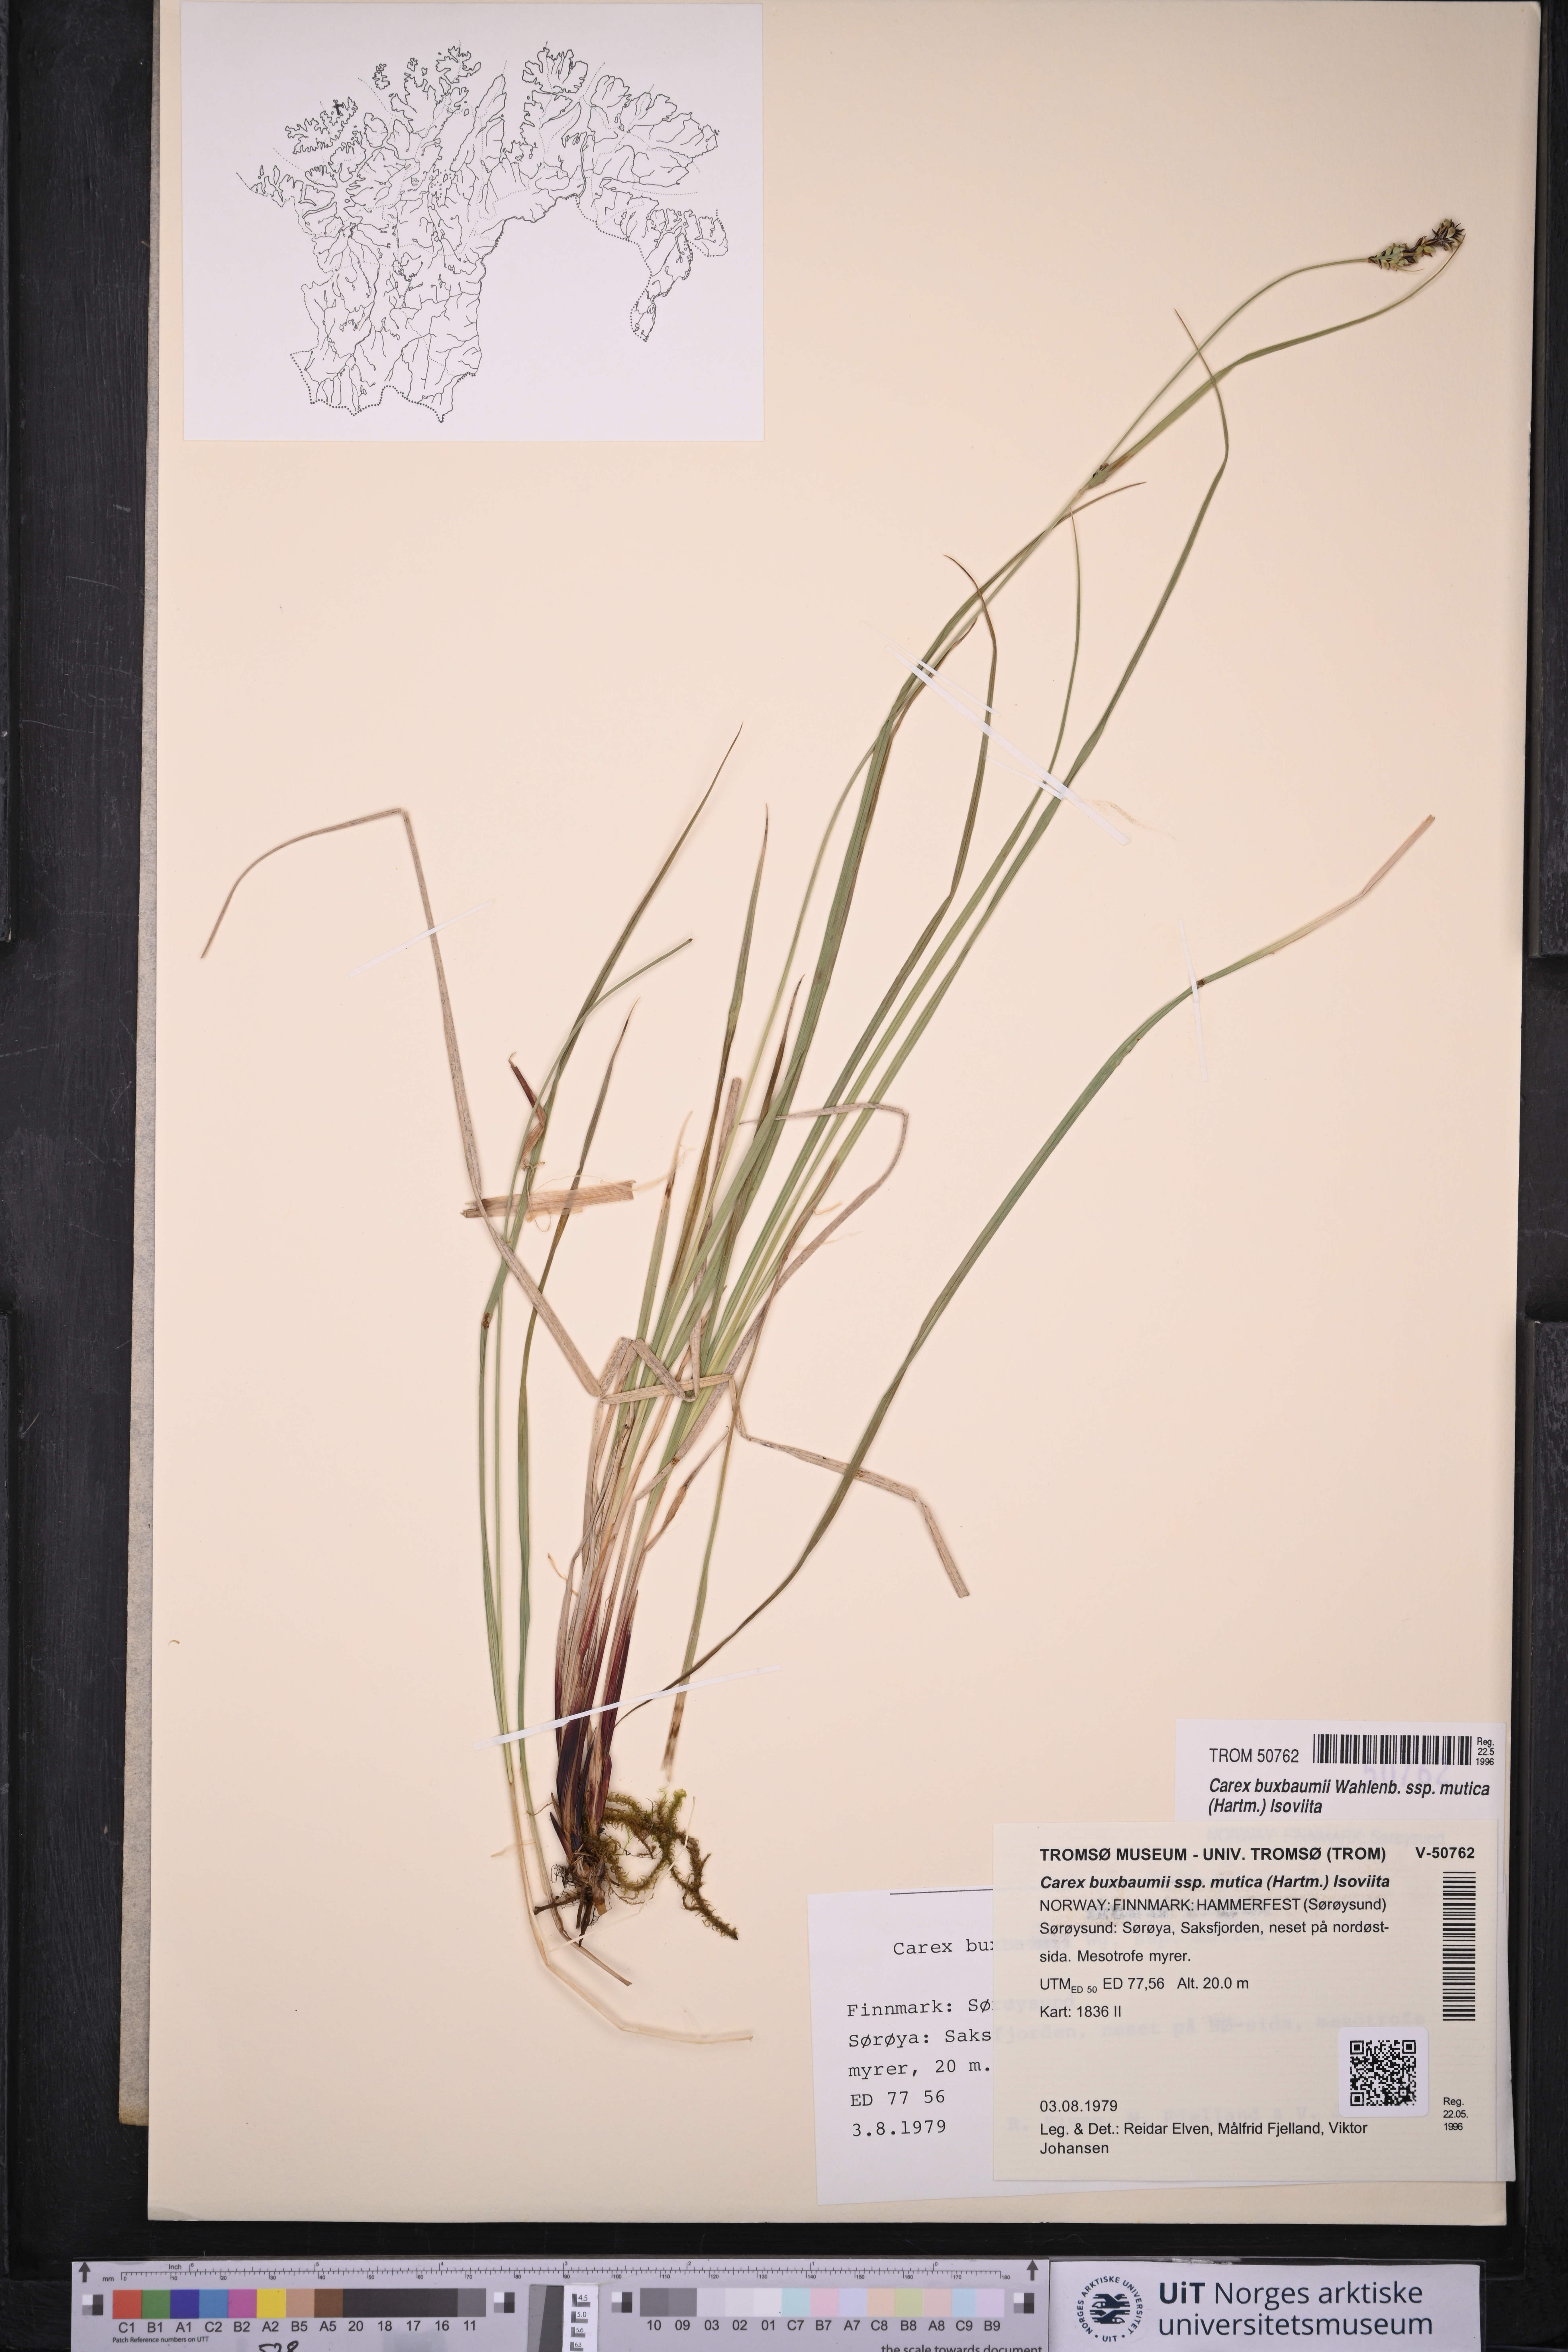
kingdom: Plantae
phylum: Tracheophyta
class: Liliopsida
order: Poales
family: Cyperaceae
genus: Carex
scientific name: Carex adelostoma
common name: Circumpolar sedge
